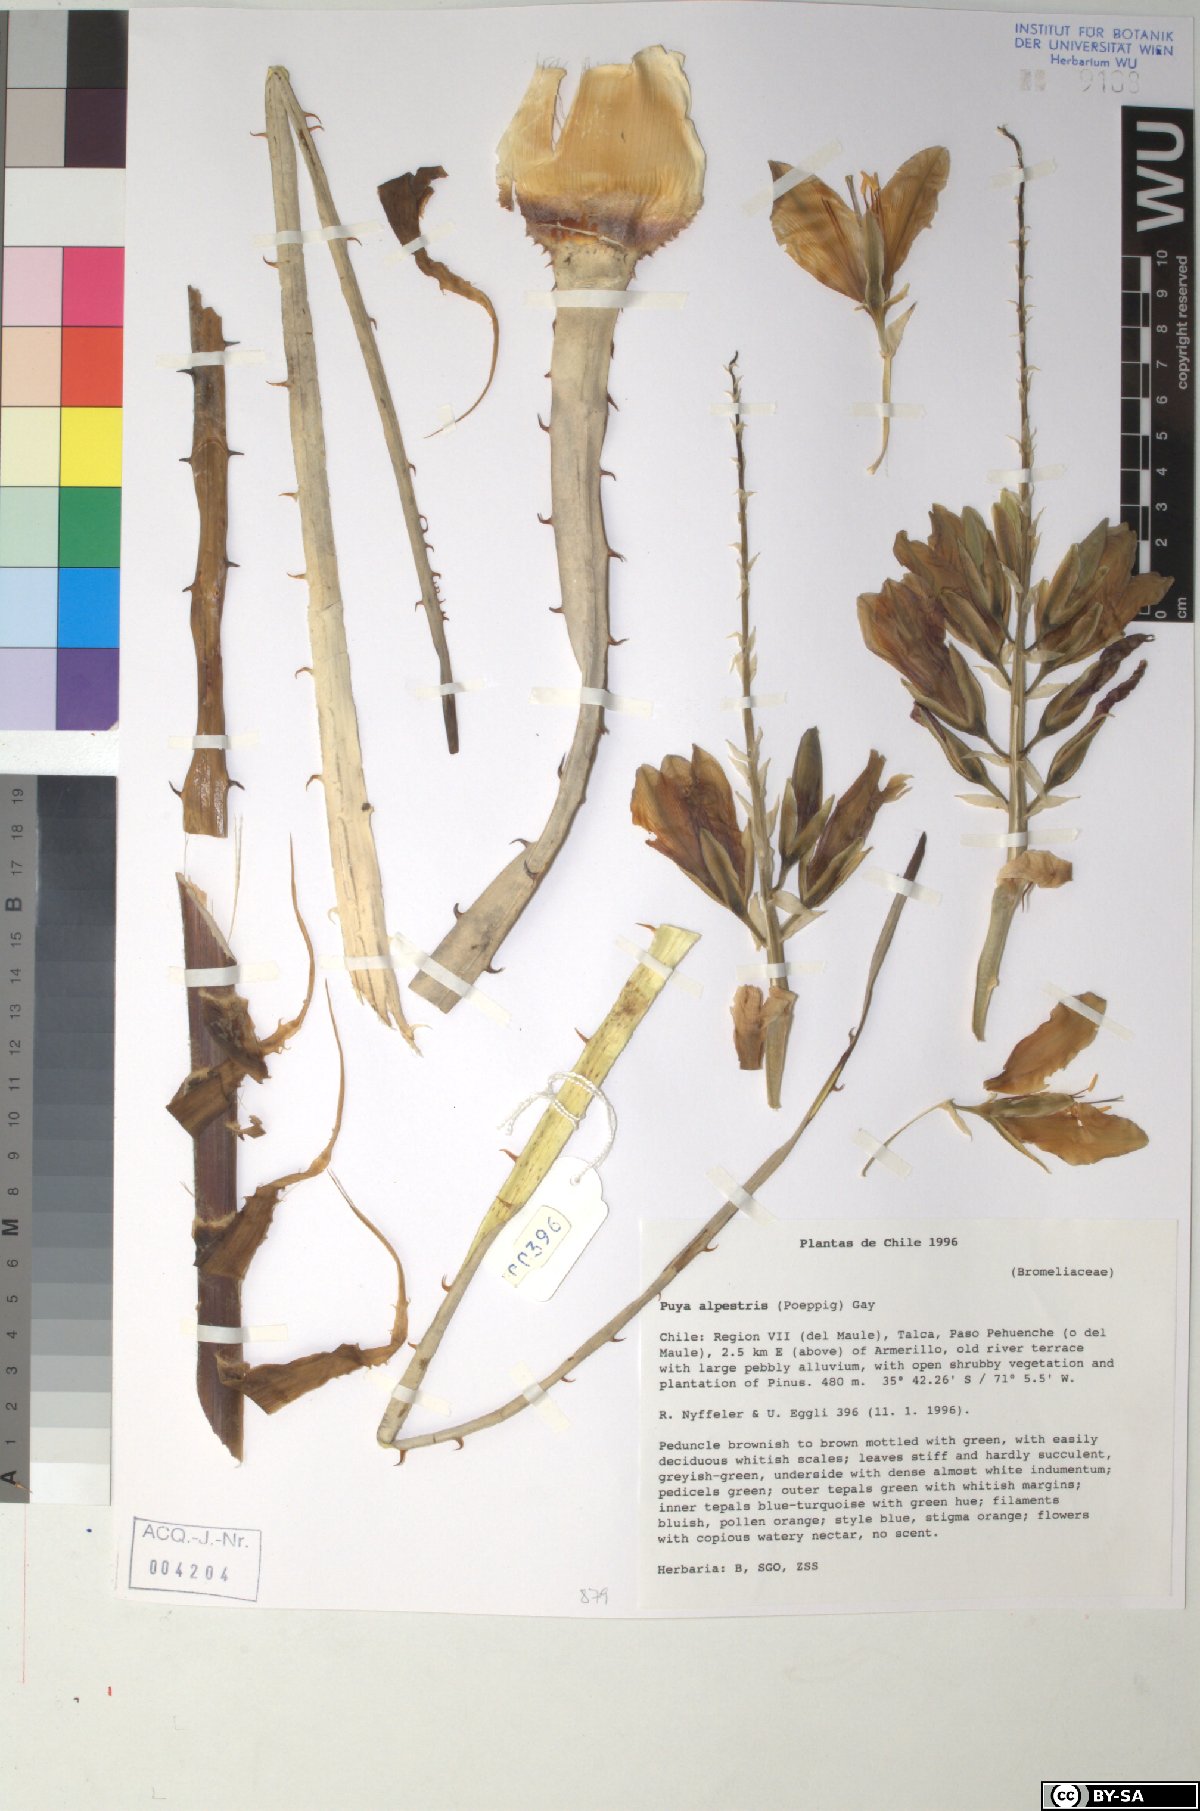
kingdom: Plantae
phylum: Tracheophyta
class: Liliopsida
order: Poales
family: Bromeliaceae
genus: Puya
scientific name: Puya alpestris
